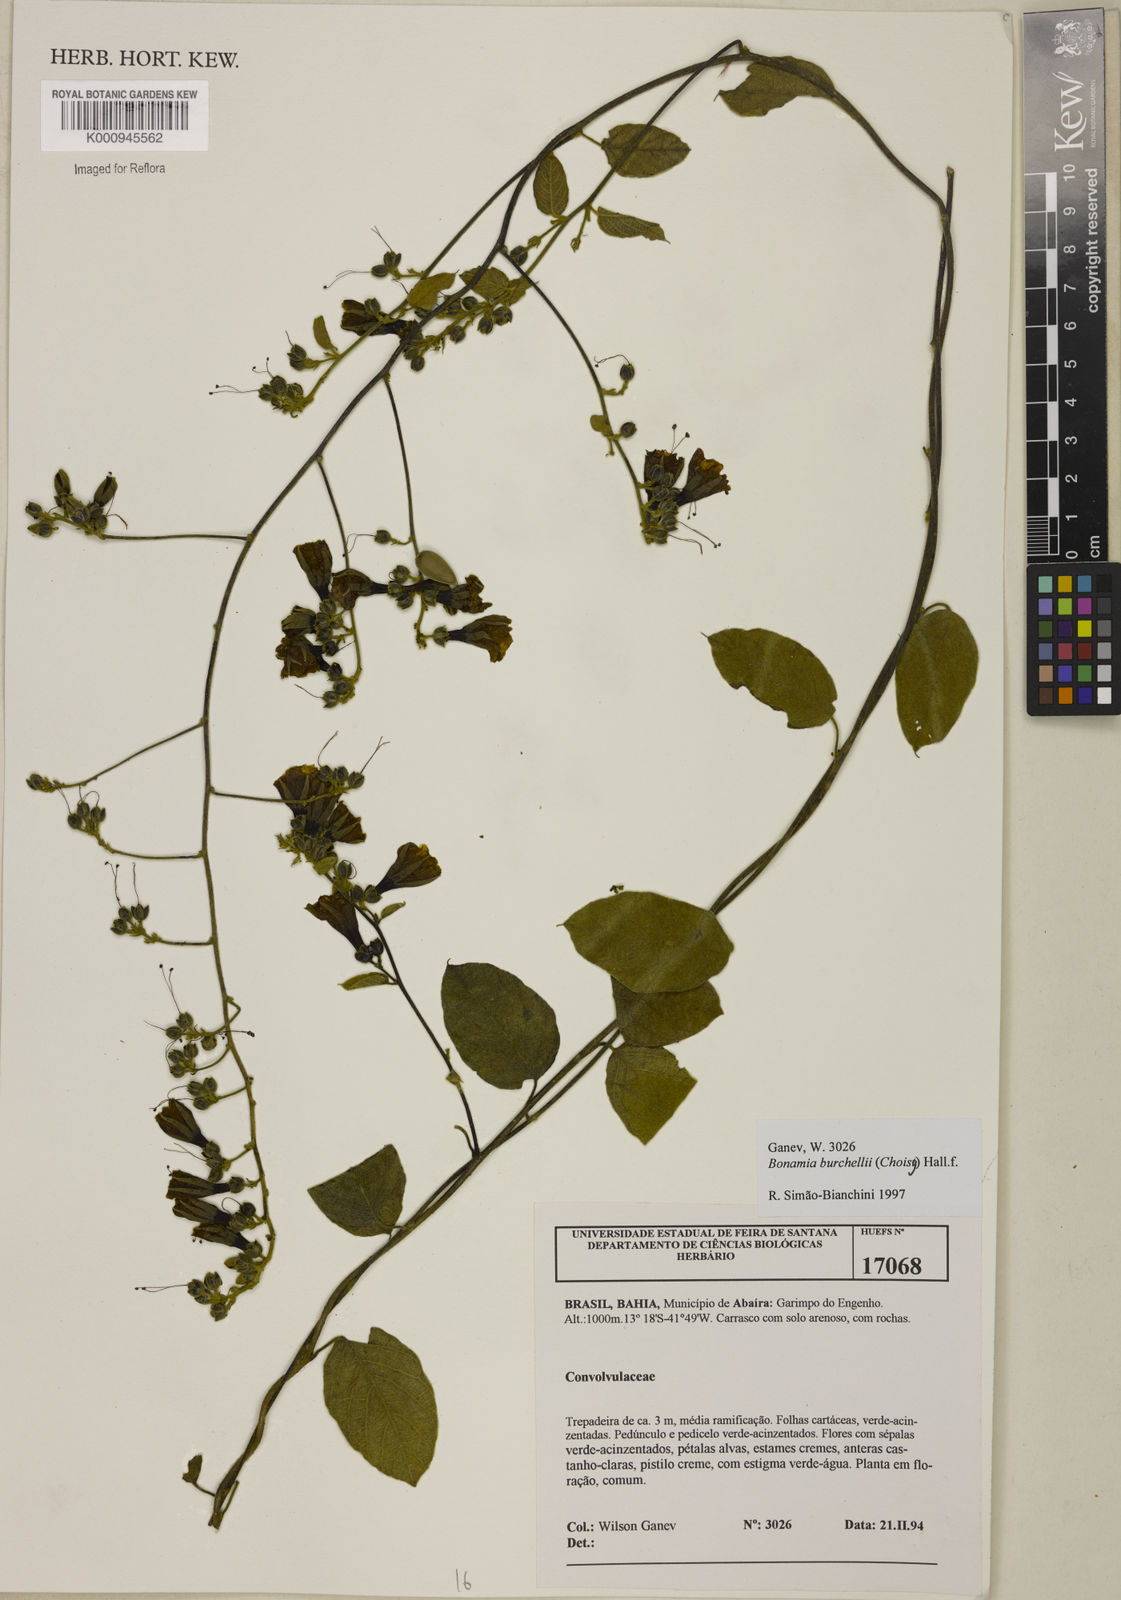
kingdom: Plantae
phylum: Tracheophyta
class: Magnoliopsida
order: Solanales
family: Convolvulaceae
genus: Bonamia
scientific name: Bonamia agrostopolis
